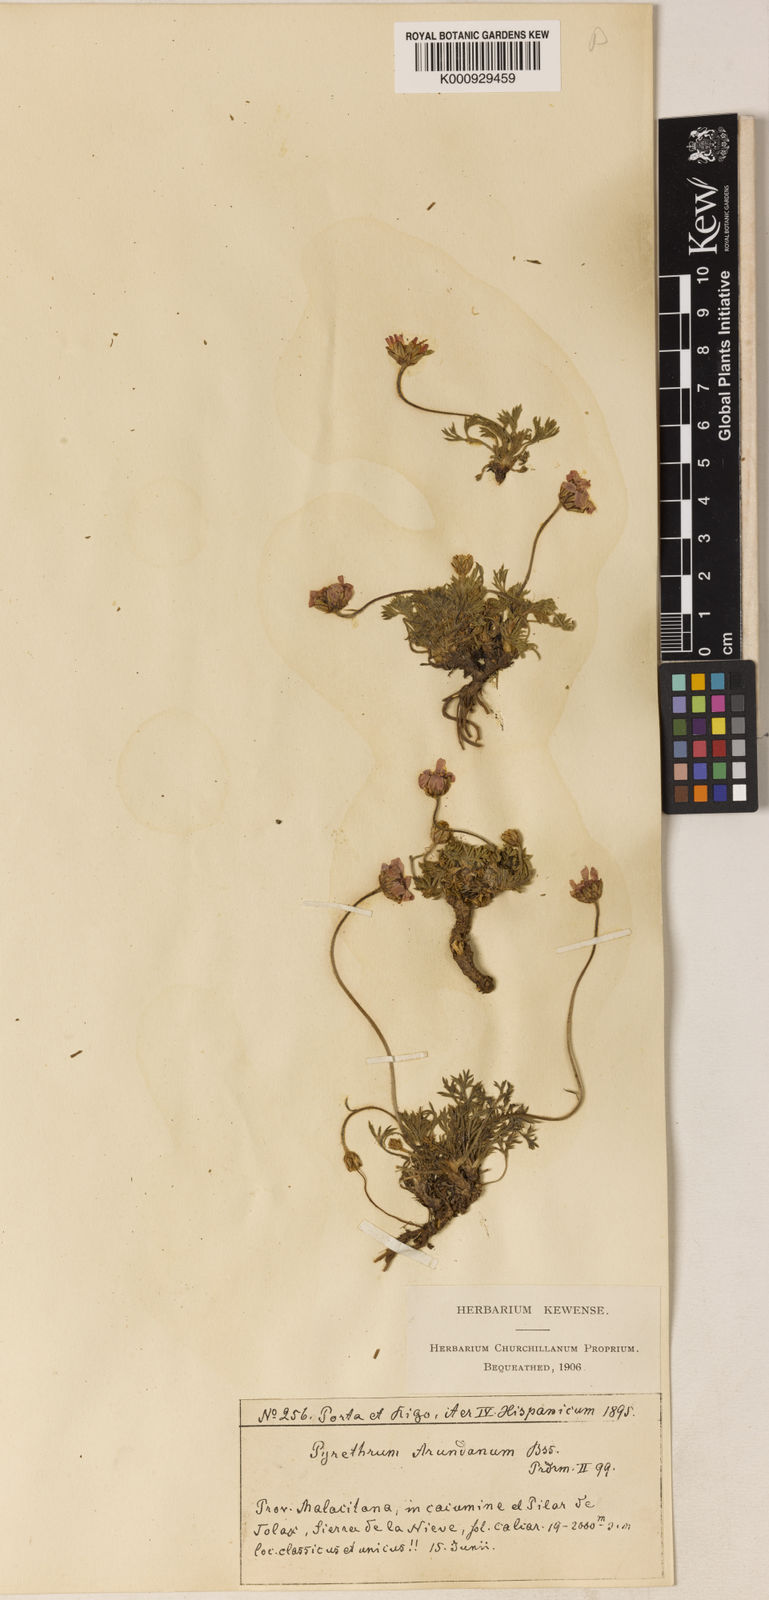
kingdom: Plantae
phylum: Tracheophyta
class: Magnoliopsida
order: Asterales
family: Asteraceae
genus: Rhodanthemum
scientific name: Rhodanthemum arundanum
